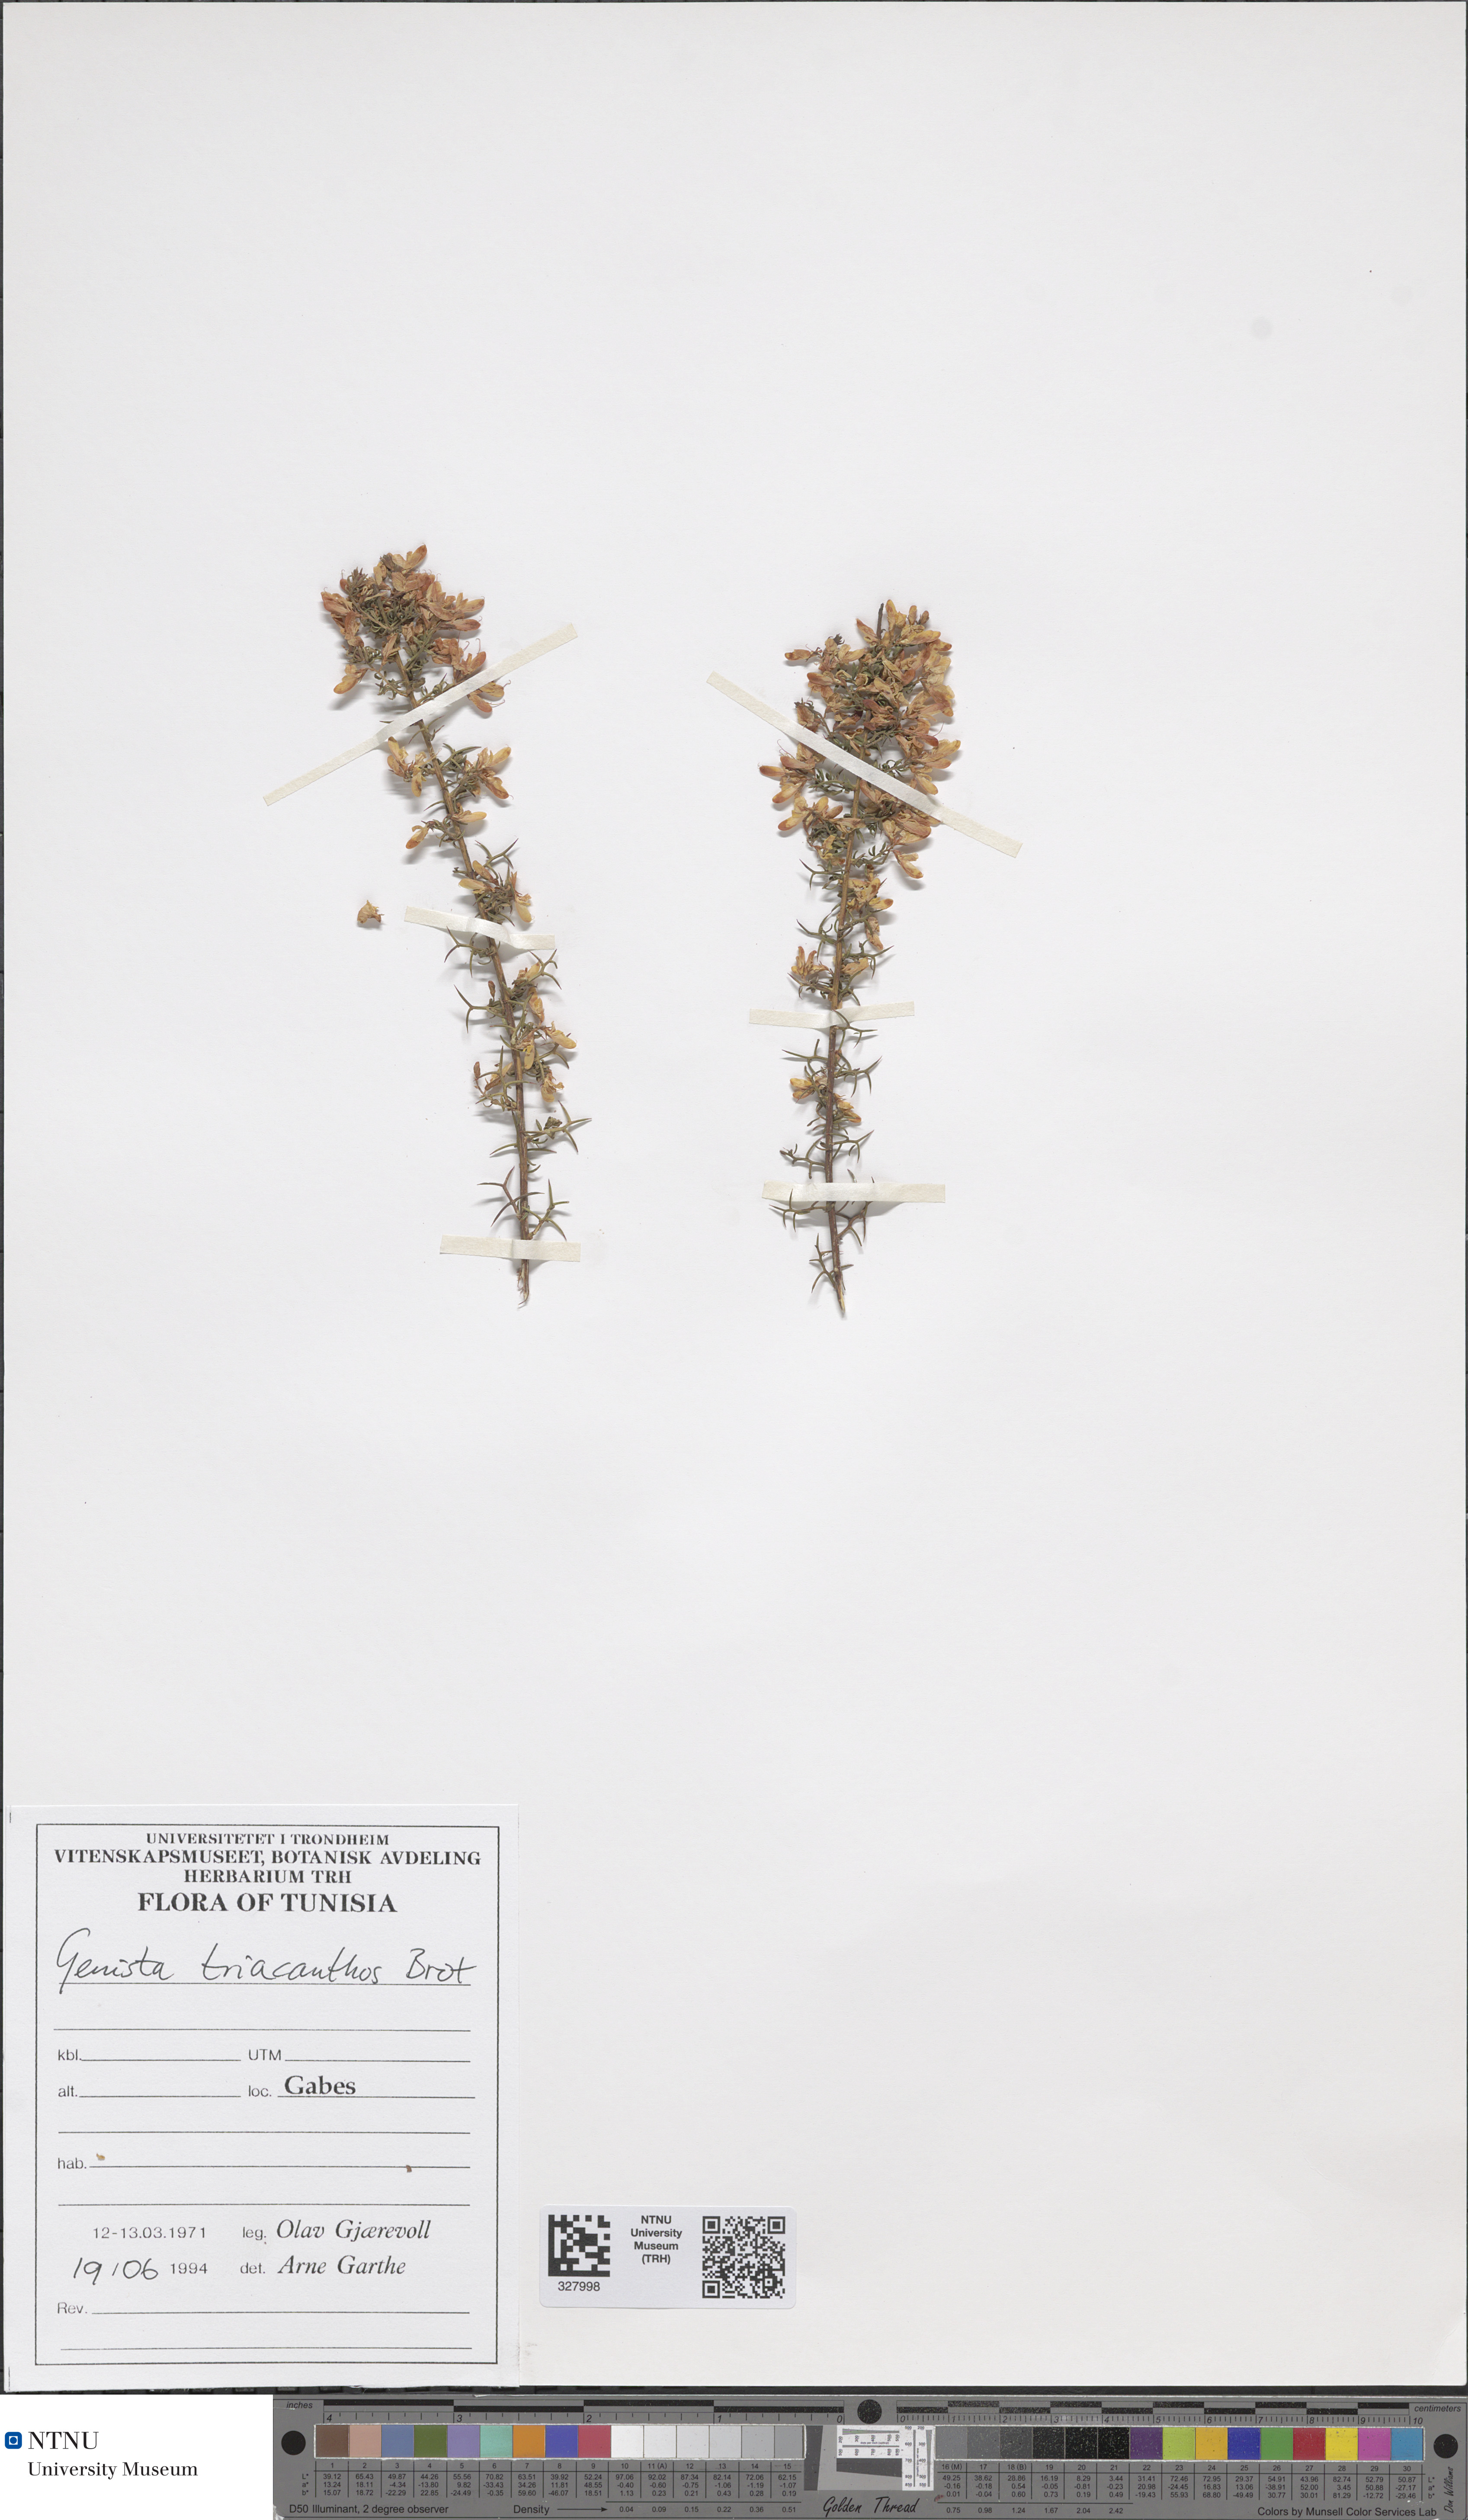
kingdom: Plantae
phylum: Tracheophyta
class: Magnoliopsida
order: Fabales
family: Fabaceae
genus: Genista
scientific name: Genista triacanthos
